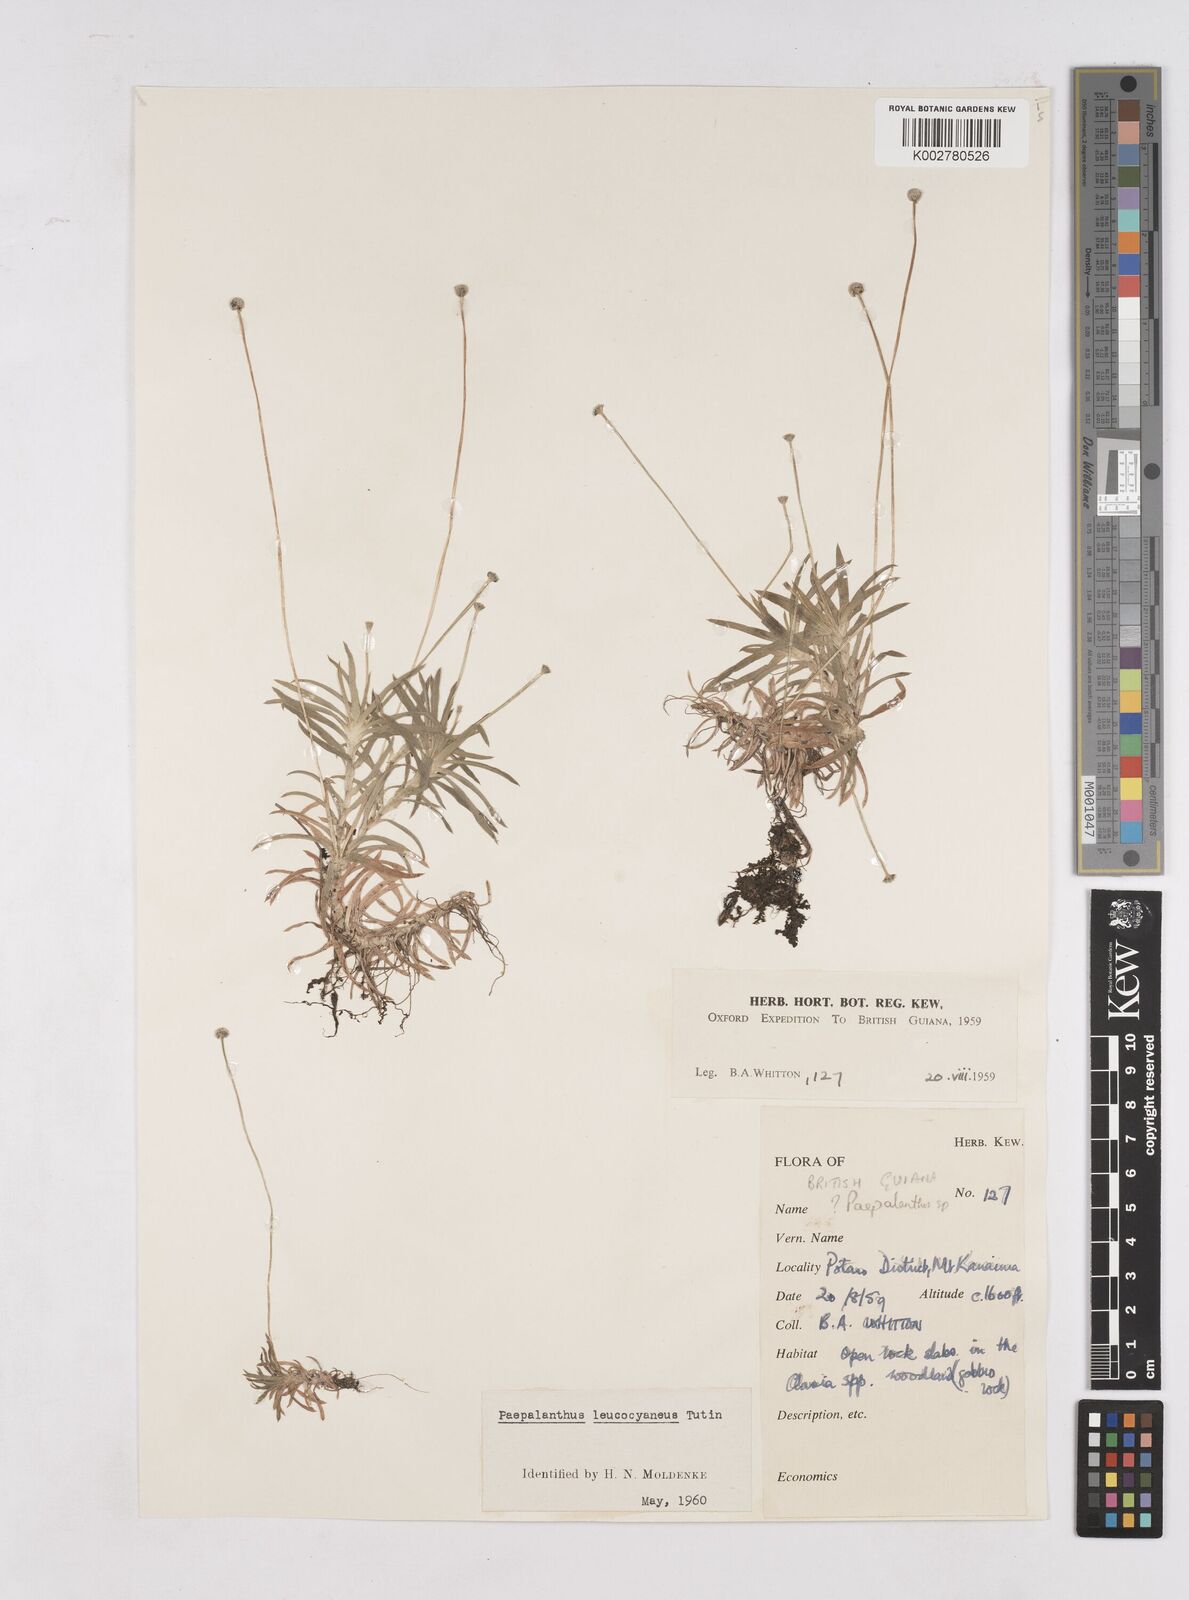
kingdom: Plantae
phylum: Tracheophyta
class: Liliopsida
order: Poales
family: Eriocaulaceae
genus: Paepalanthus
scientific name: Paepalanthus oyapockensis
